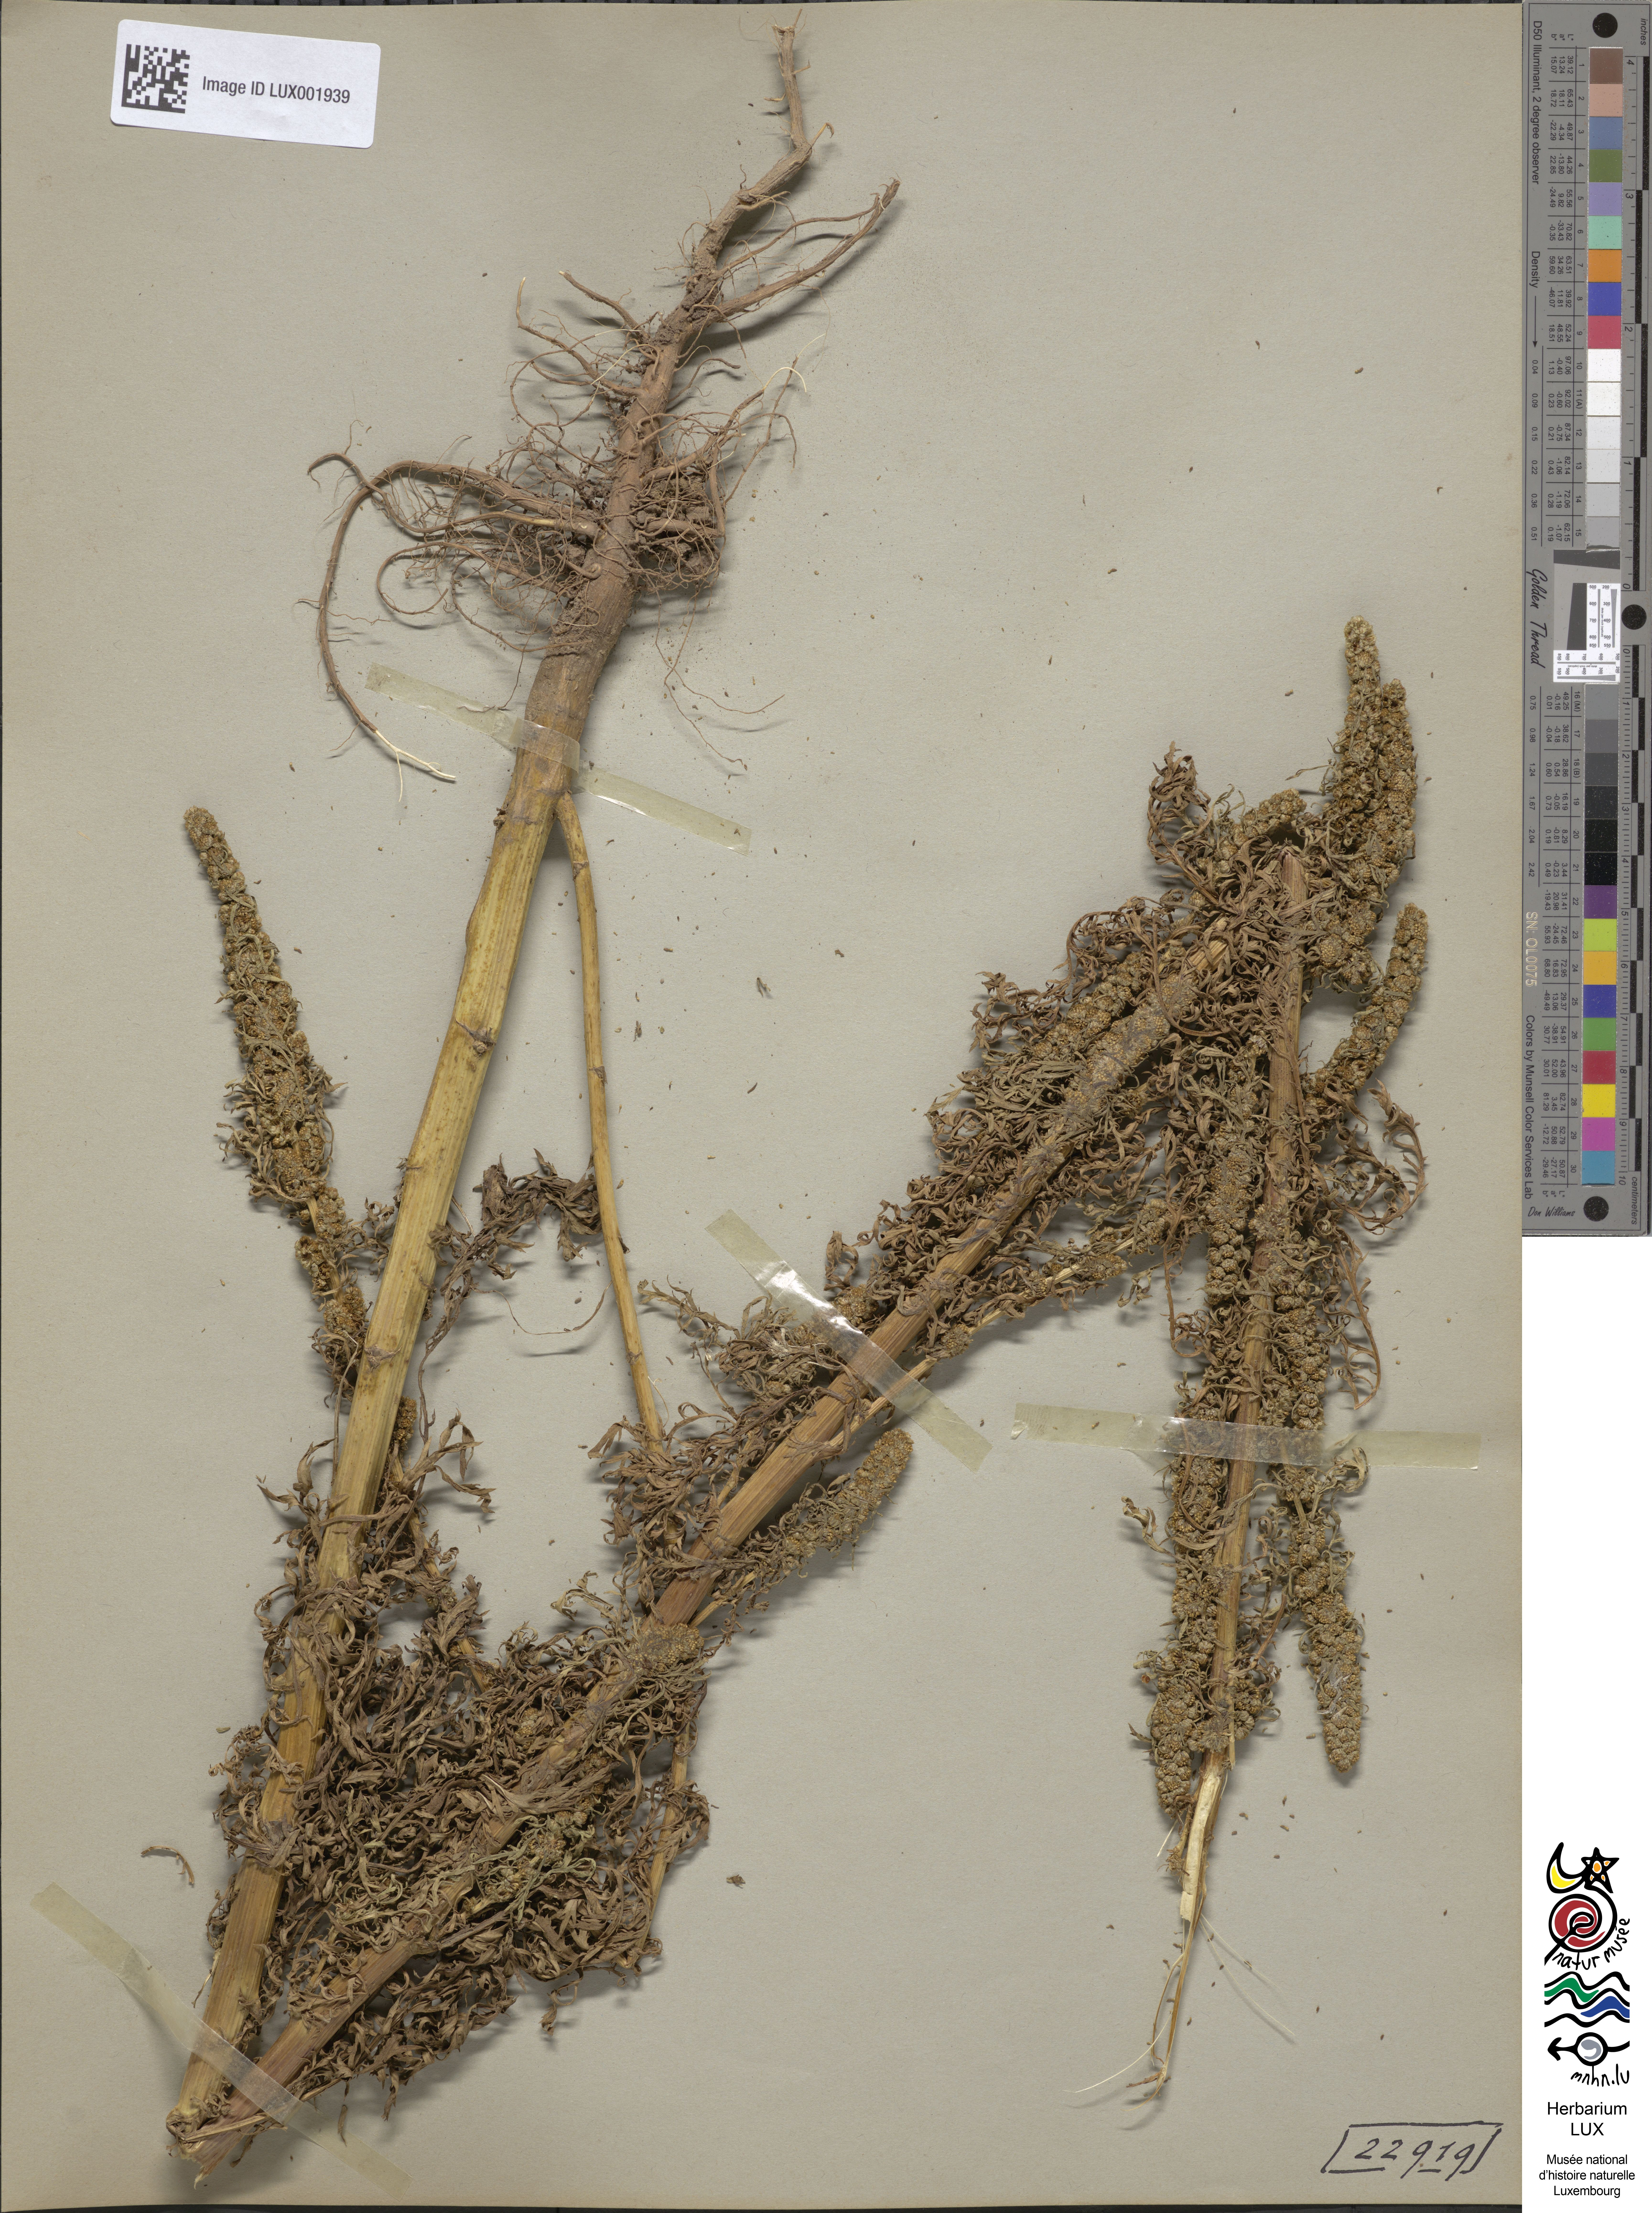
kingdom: Plantae
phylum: Tracheophyta
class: Magnoliopsida
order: Asterales
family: Asteraceae
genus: Artemisia
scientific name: Artemisia biennis
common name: Biennial wormwood
